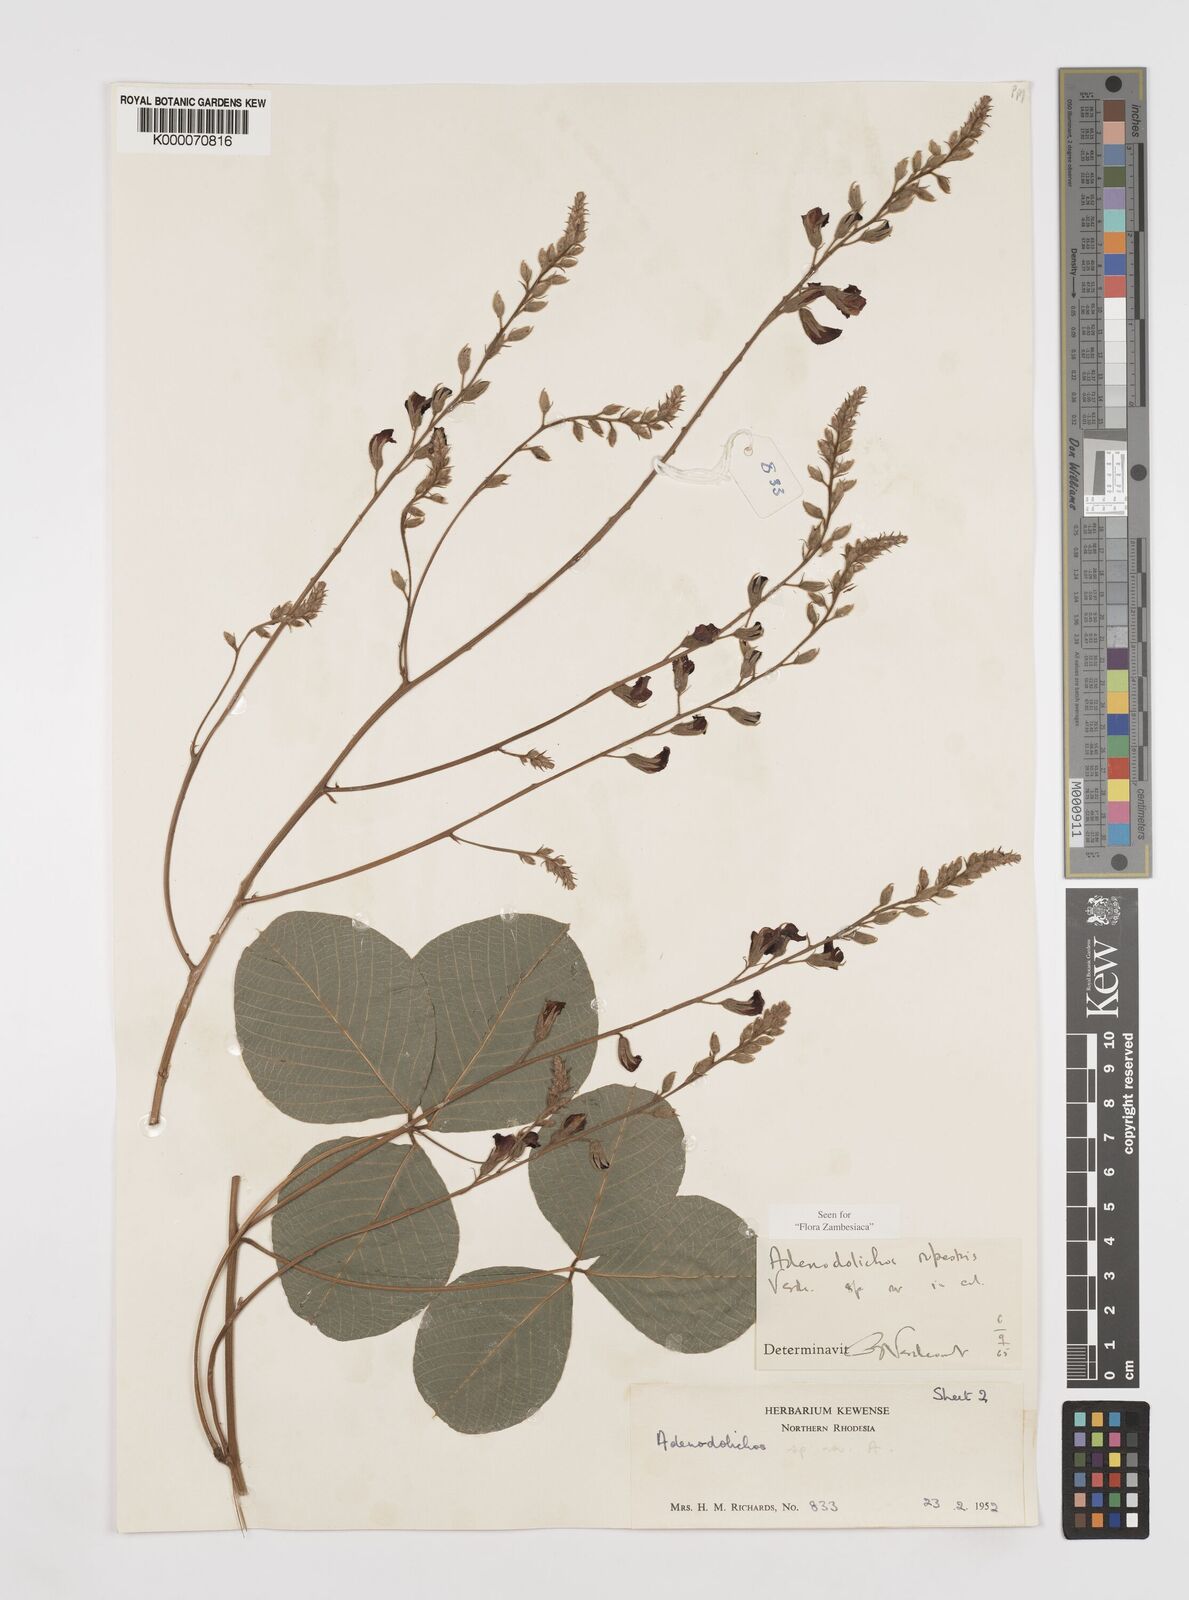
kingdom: Plantae
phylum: Tracheophyta
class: Magnoliopsida
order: Fabales
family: Fabaceae
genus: Adenodolichos
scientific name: Adenodolichos rupestris
